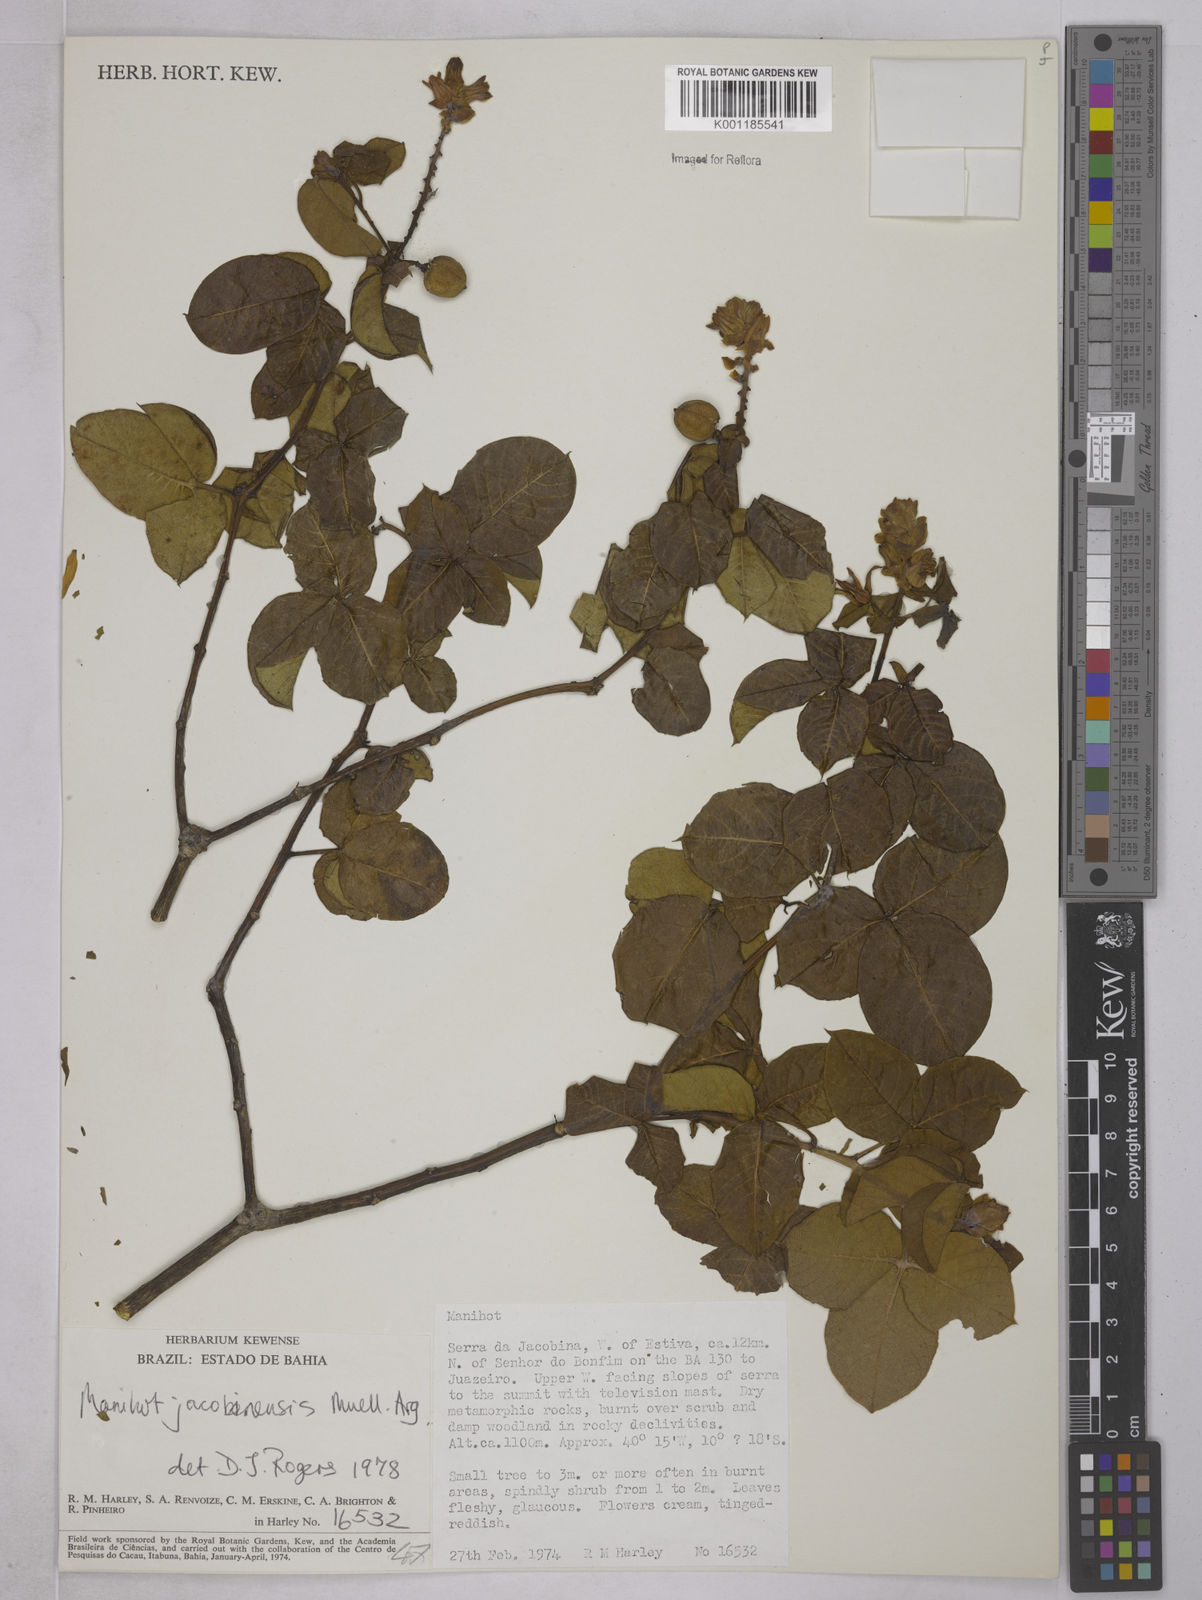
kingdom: Plantae
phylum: Tracheophyta
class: Magnoliopsida
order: Malpighiales
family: Euphorbiaceae
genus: Manihot
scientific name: Manihot
